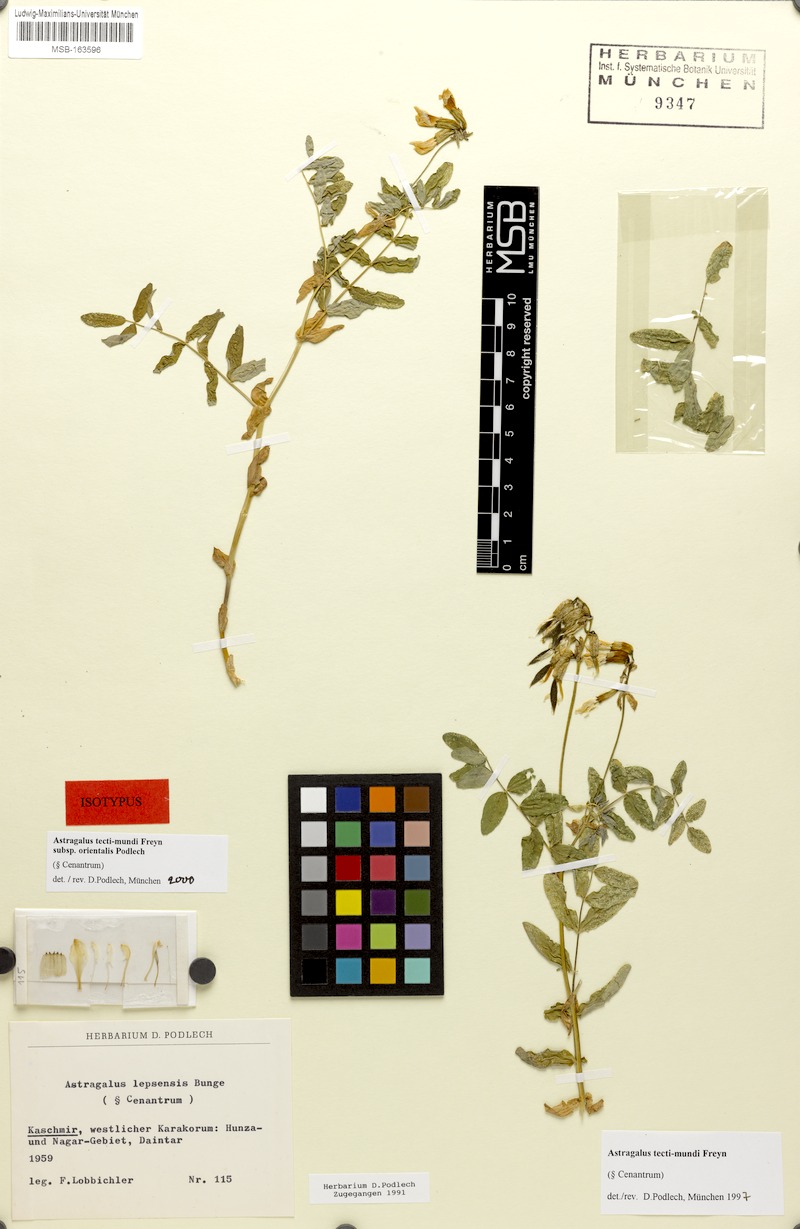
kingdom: Plantae
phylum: Tracheophyta
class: Magnoliopsida
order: Fabales
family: Fabaceae
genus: Astragalus
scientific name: Astragalus tecti-mundi
